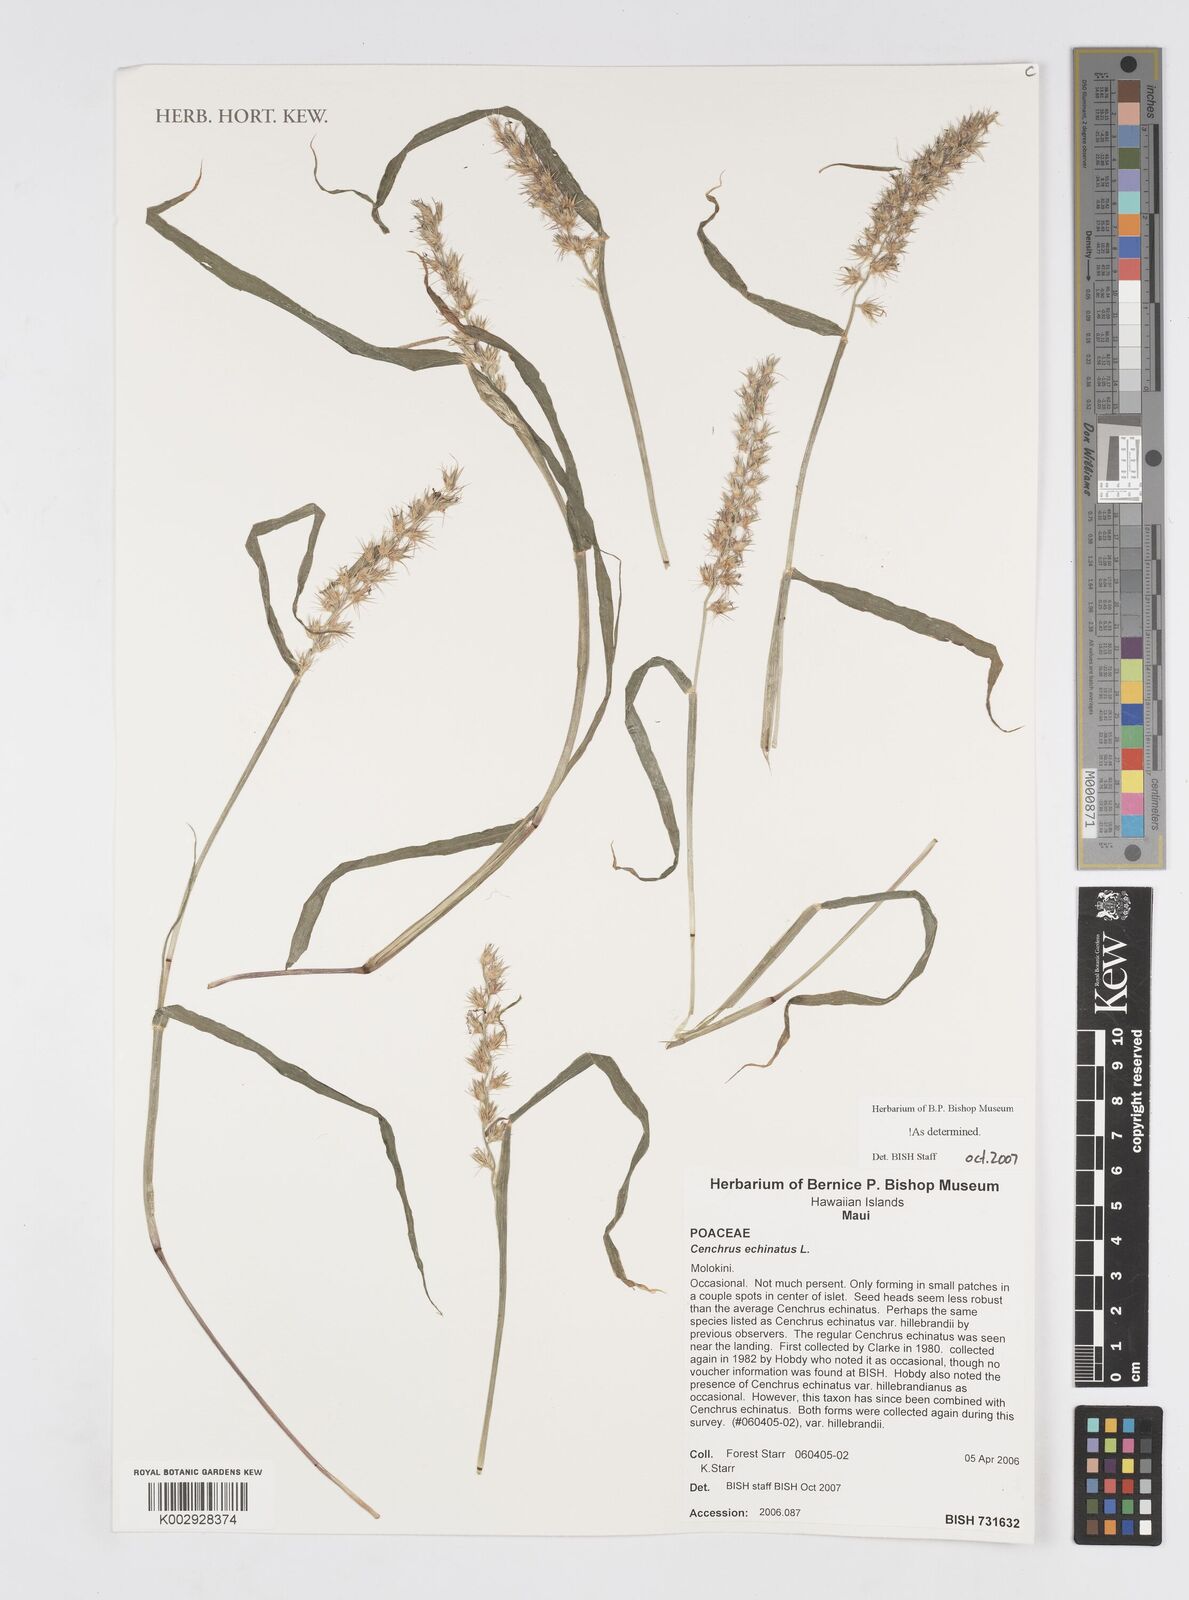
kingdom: Plantae
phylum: Tracheophyta
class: Liliopsida
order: Poales
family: Poaceae
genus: Cenchrus
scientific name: Cenchrus echinatus
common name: Southern sandbur
